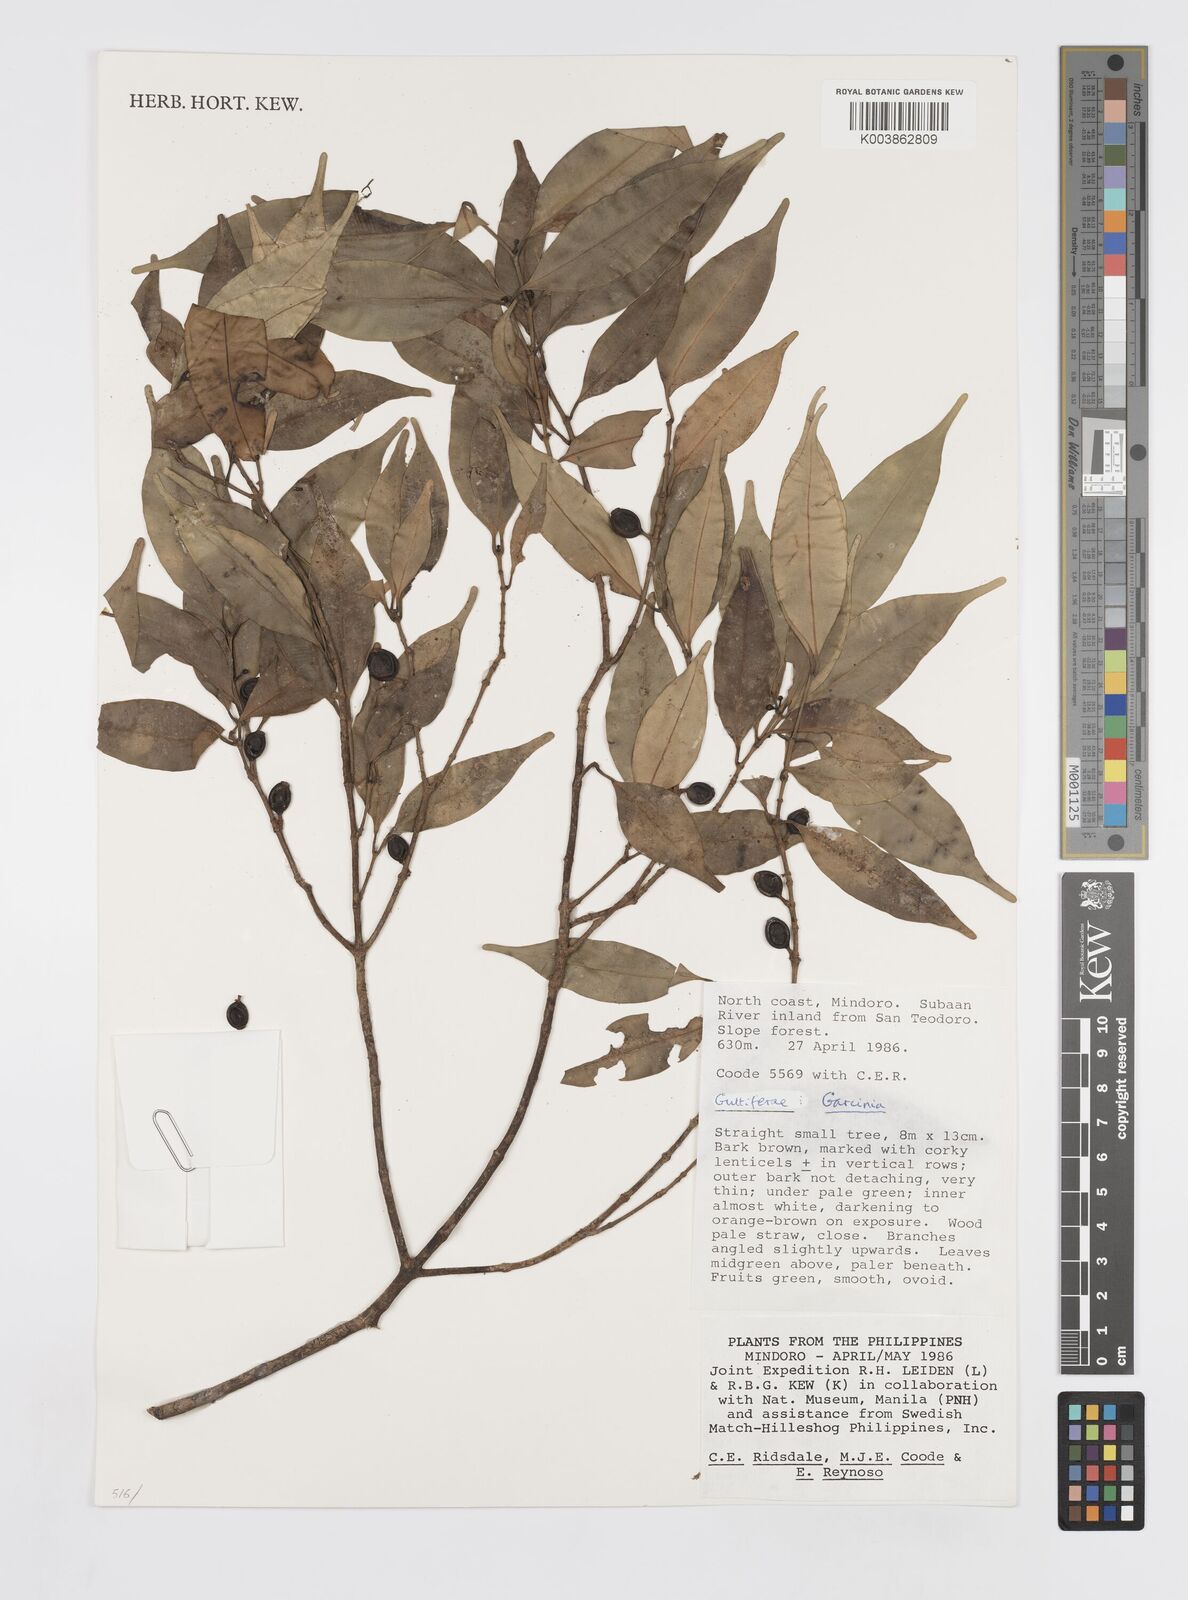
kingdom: Plantae
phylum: Tracheophyta
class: Magnoliopsida
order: Malpighiales
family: Clusiaceae
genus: Garcinia
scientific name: Garcinia
